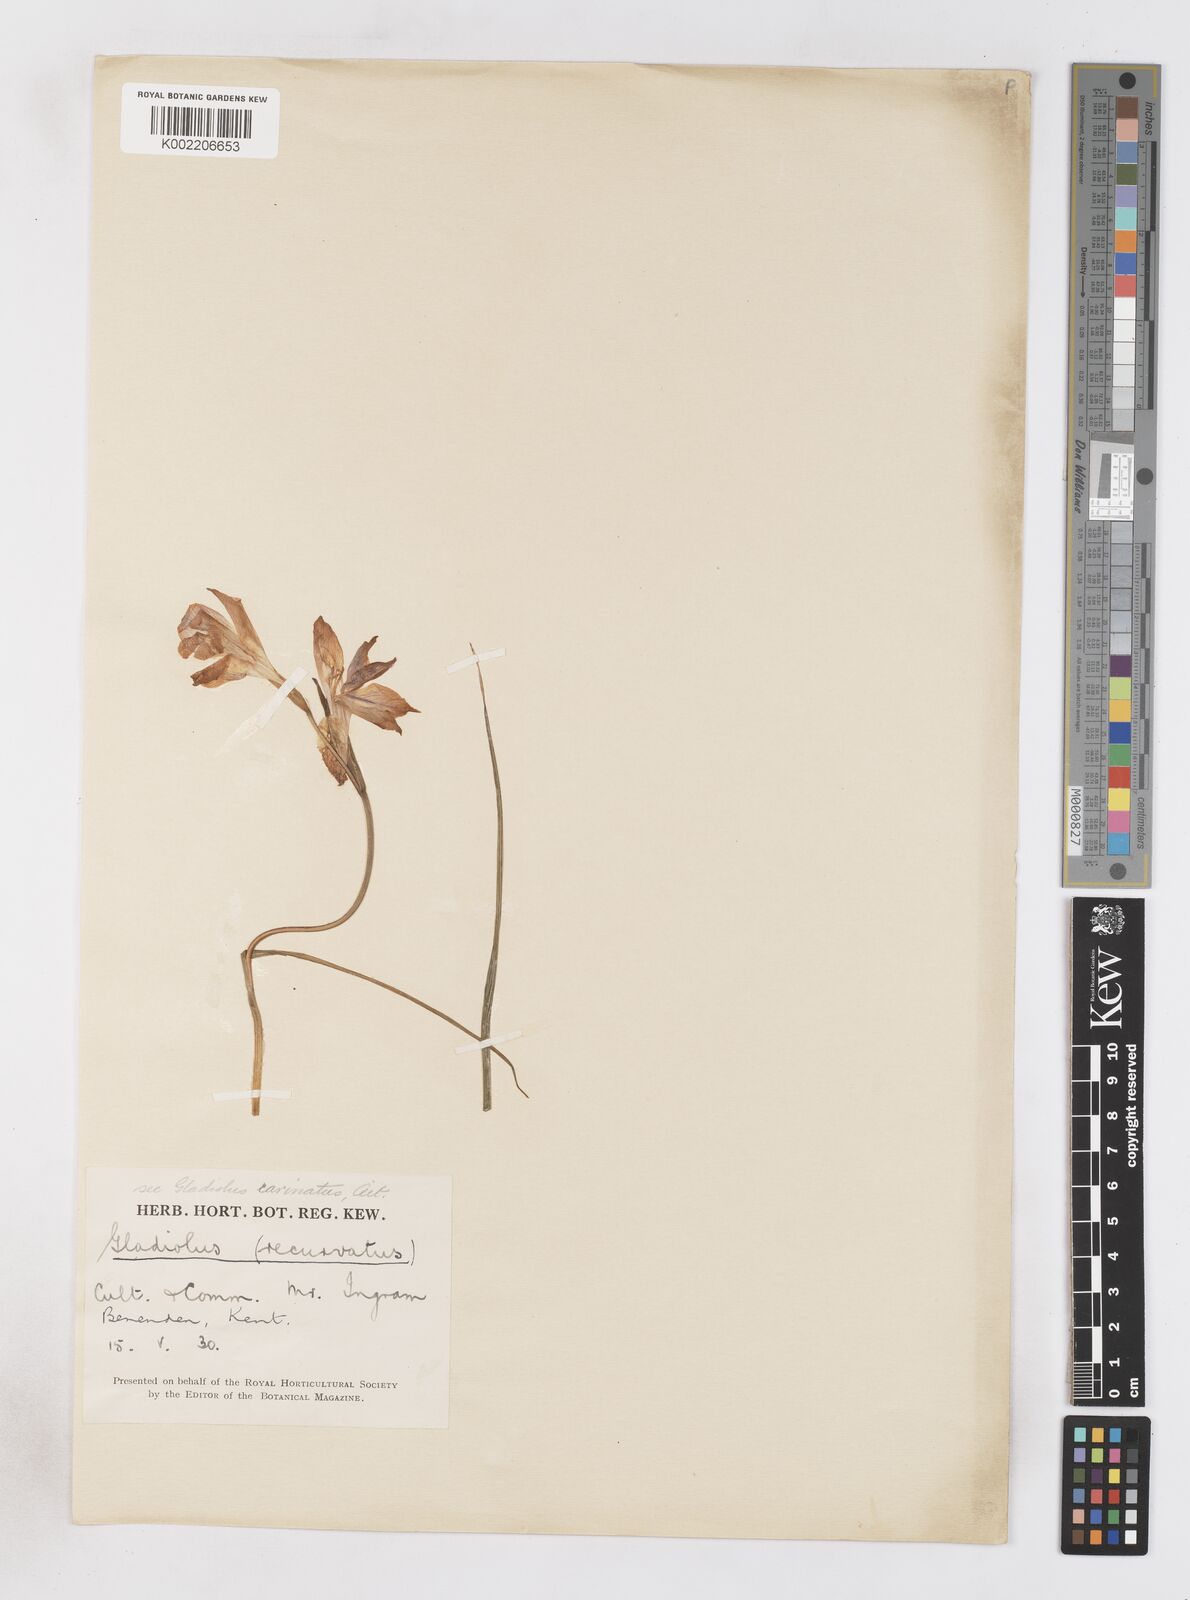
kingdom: Plantae
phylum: Tracheophyta
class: Liliopsida
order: Asparagales
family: Iridaceae
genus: Gladiolus
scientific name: Gladiolus carinatus
